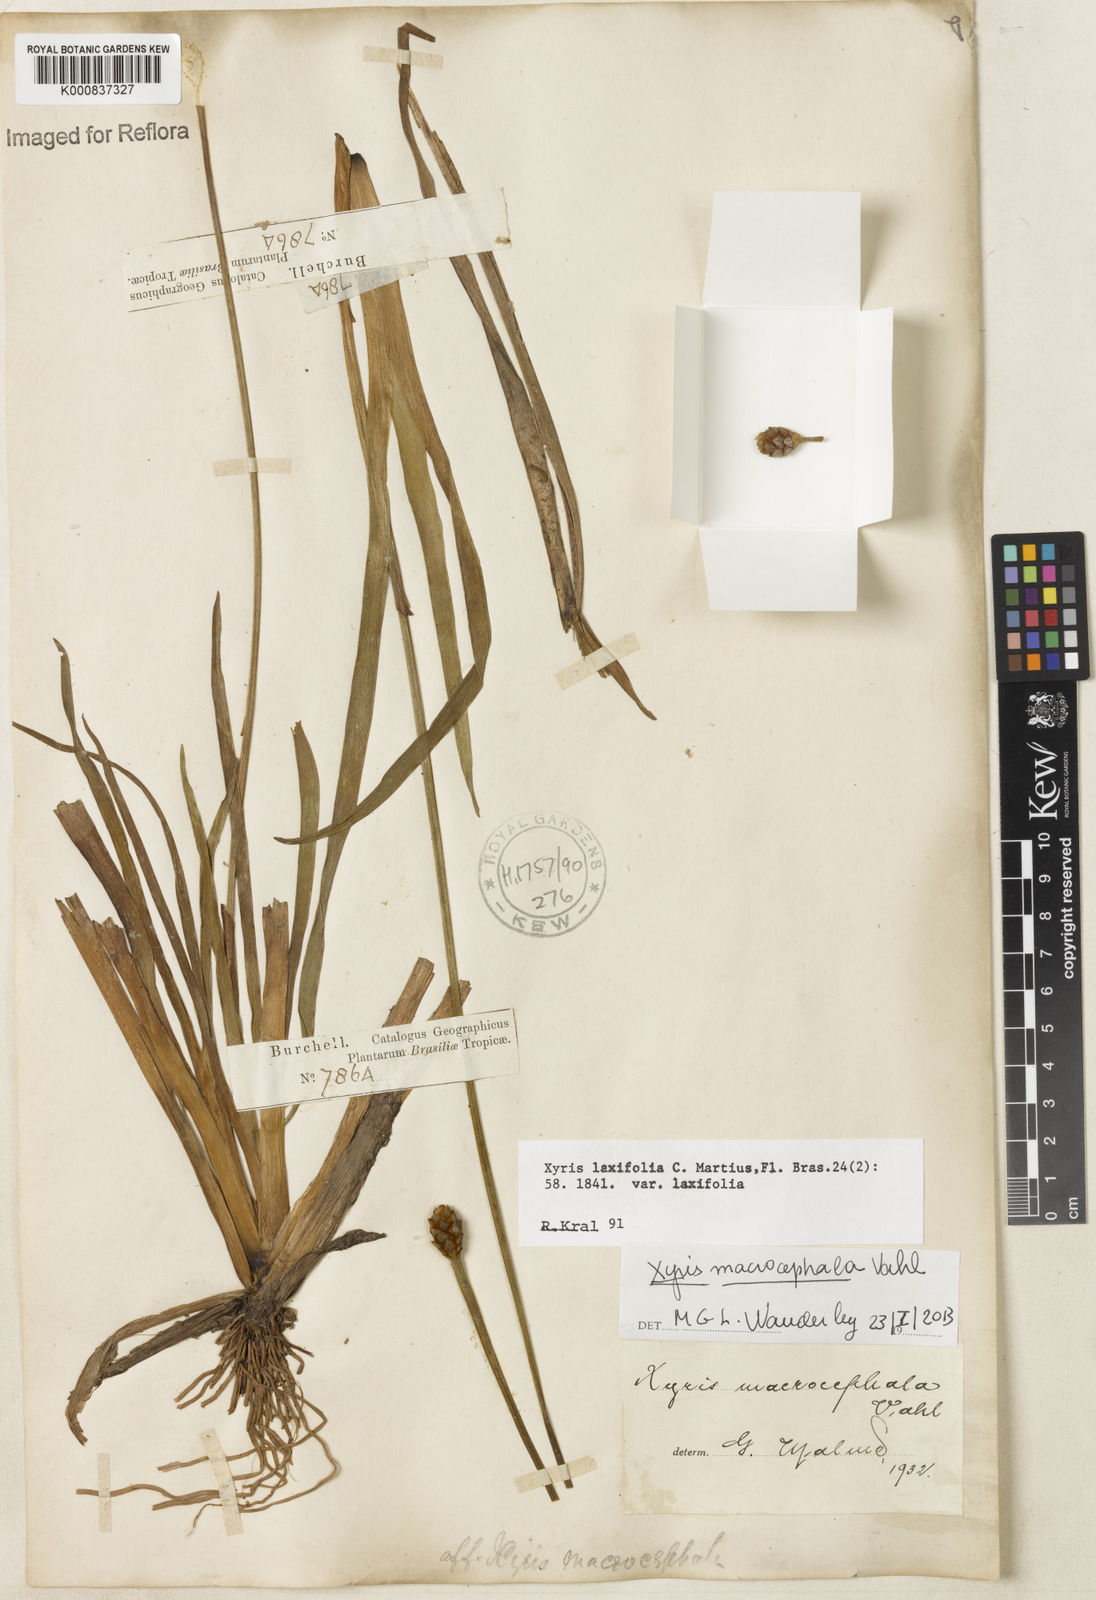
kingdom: Plantae
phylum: Tracheophyta
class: Liliopsida
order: Poales
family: Xyridaceae
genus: Xyris
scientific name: Xyris jupicai
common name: Richard's yelloweyed grass
